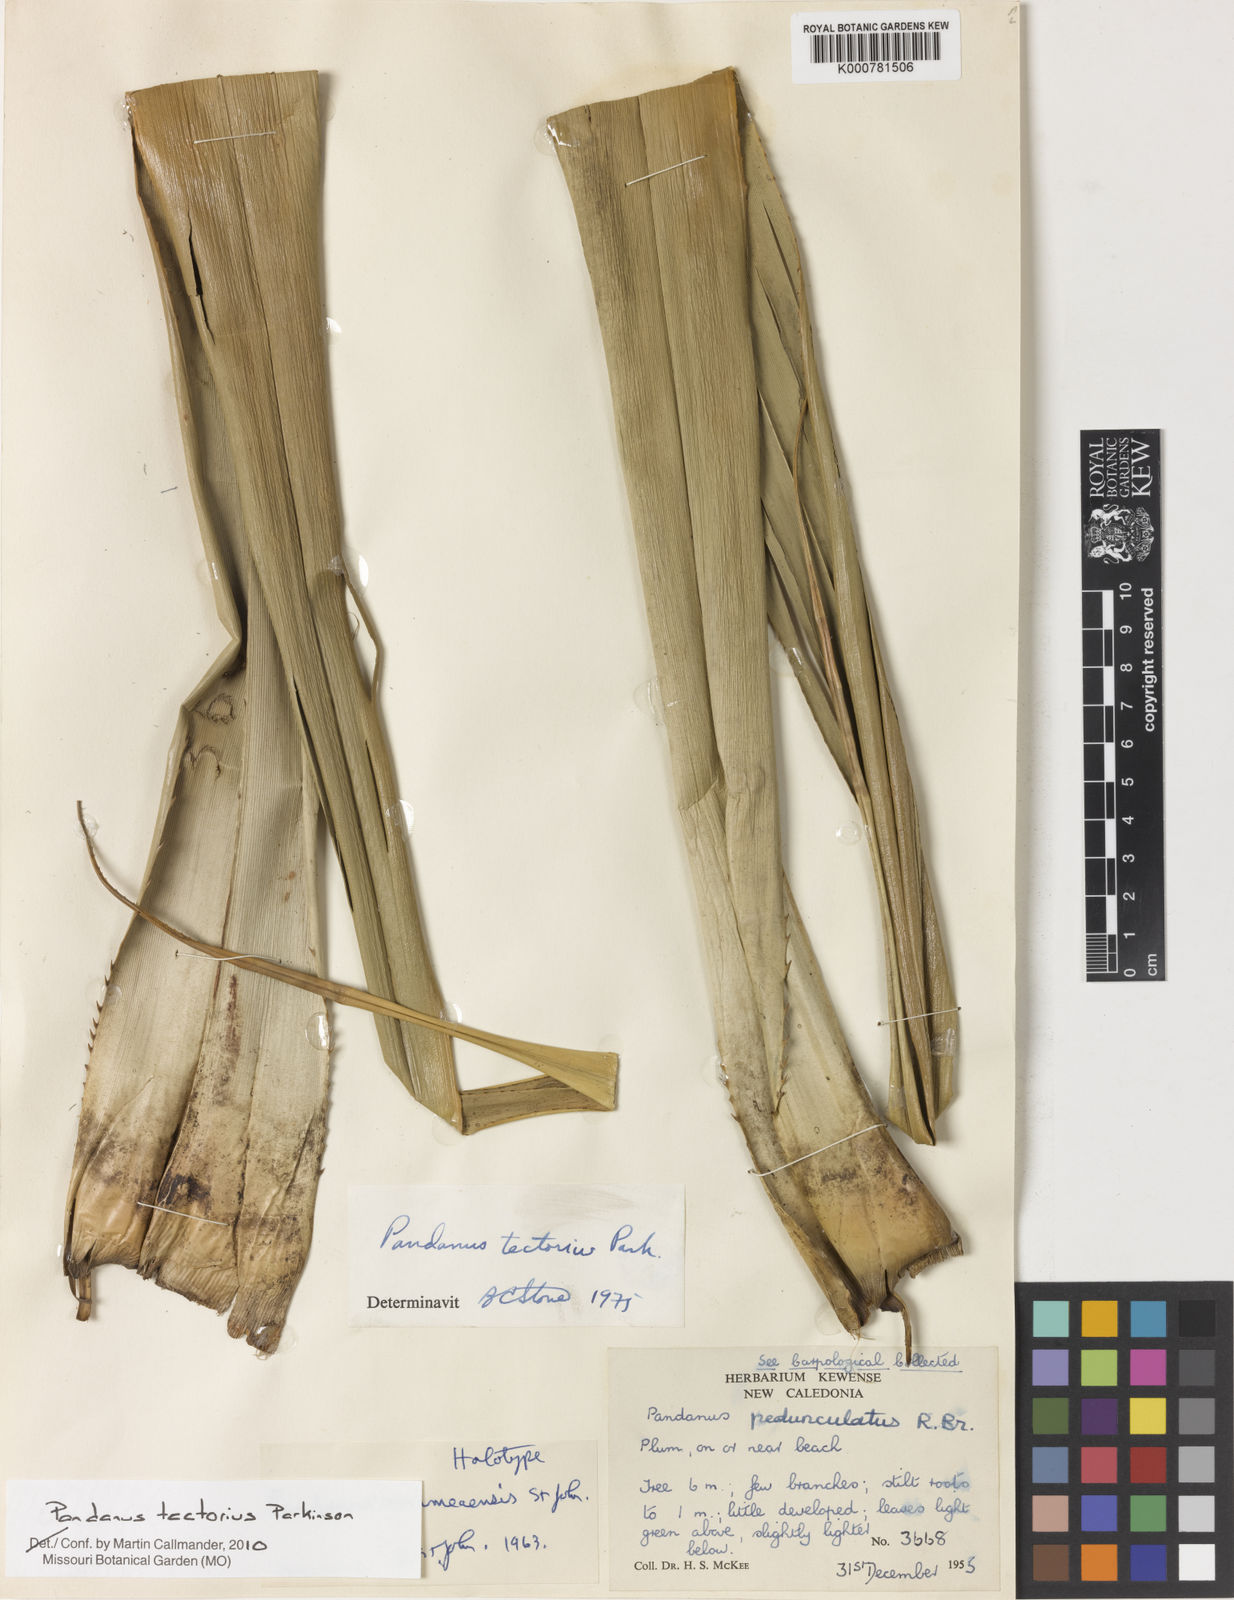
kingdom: Plantae
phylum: Tracheophyta
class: Liliopsida
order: Pandanales
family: Pandanaceae
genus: Pandanus
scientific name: Pandanus
